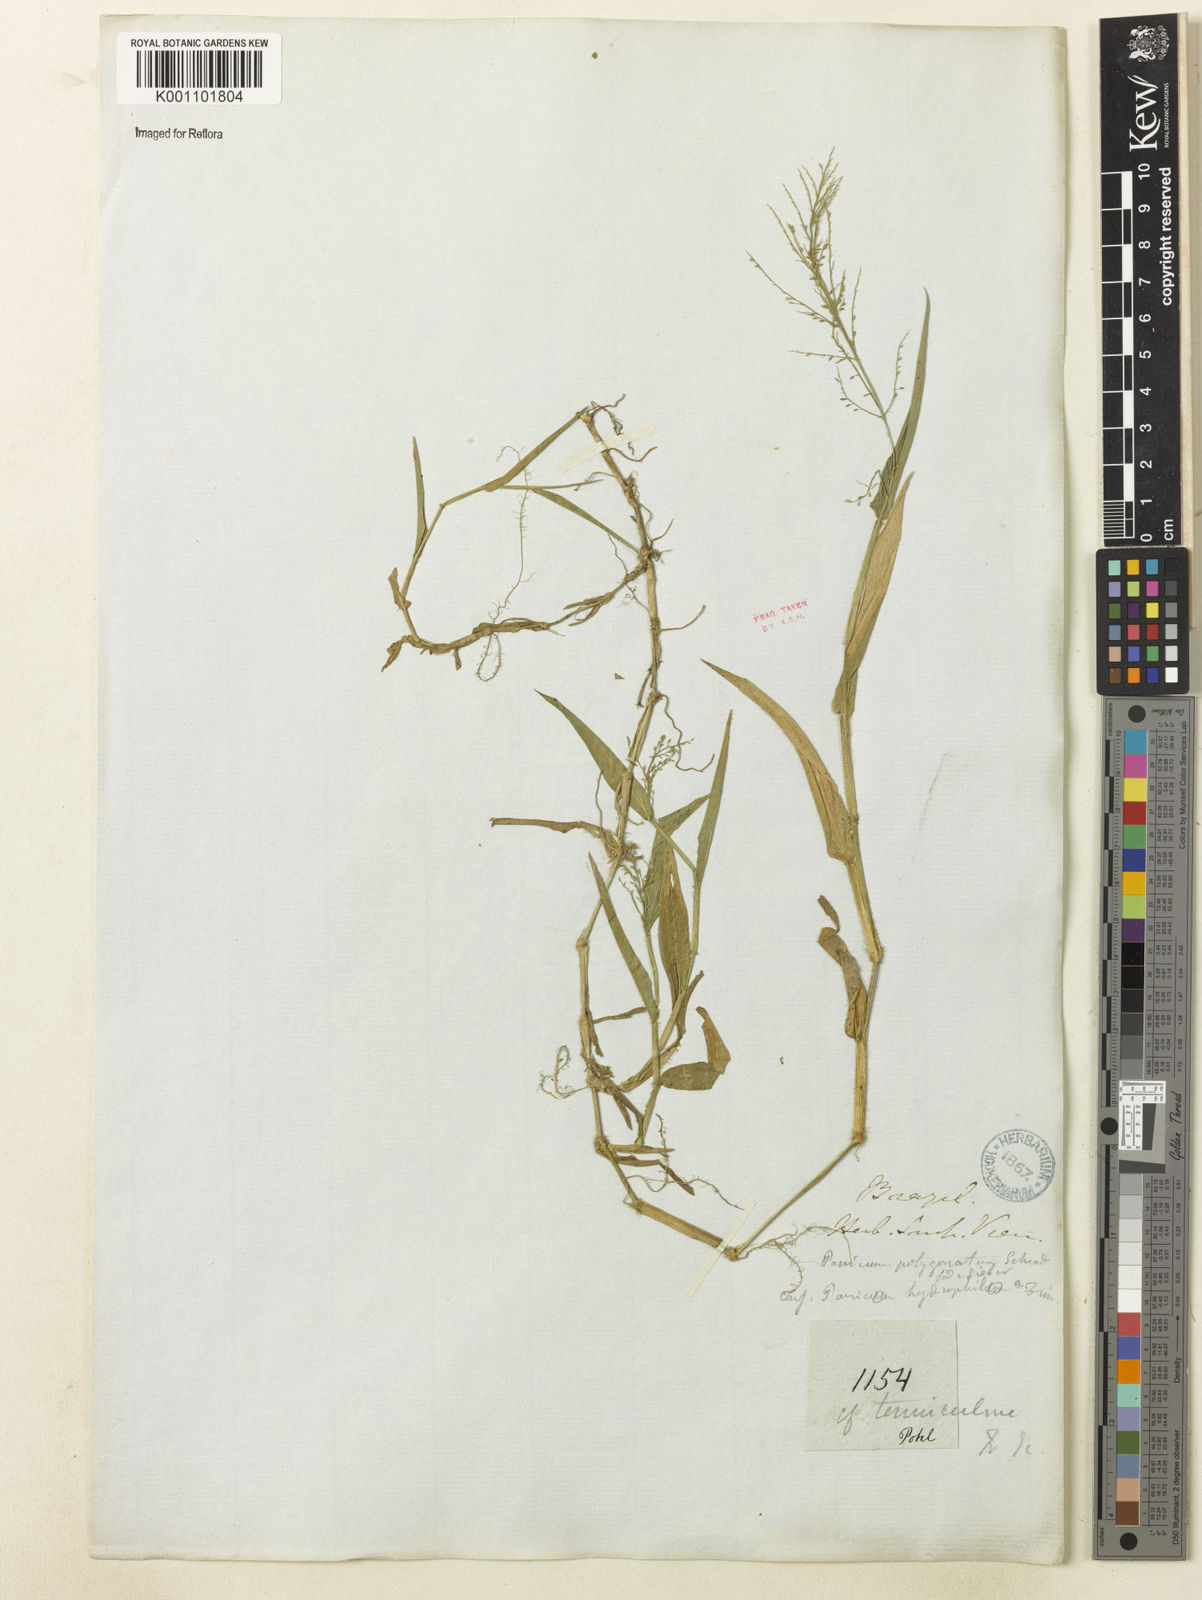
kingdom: Plantae
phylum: Tracheophyta
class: Liliopsida
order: Poales
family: Poaceae
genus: Rugoloa
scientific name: Rugoloa polygonata
